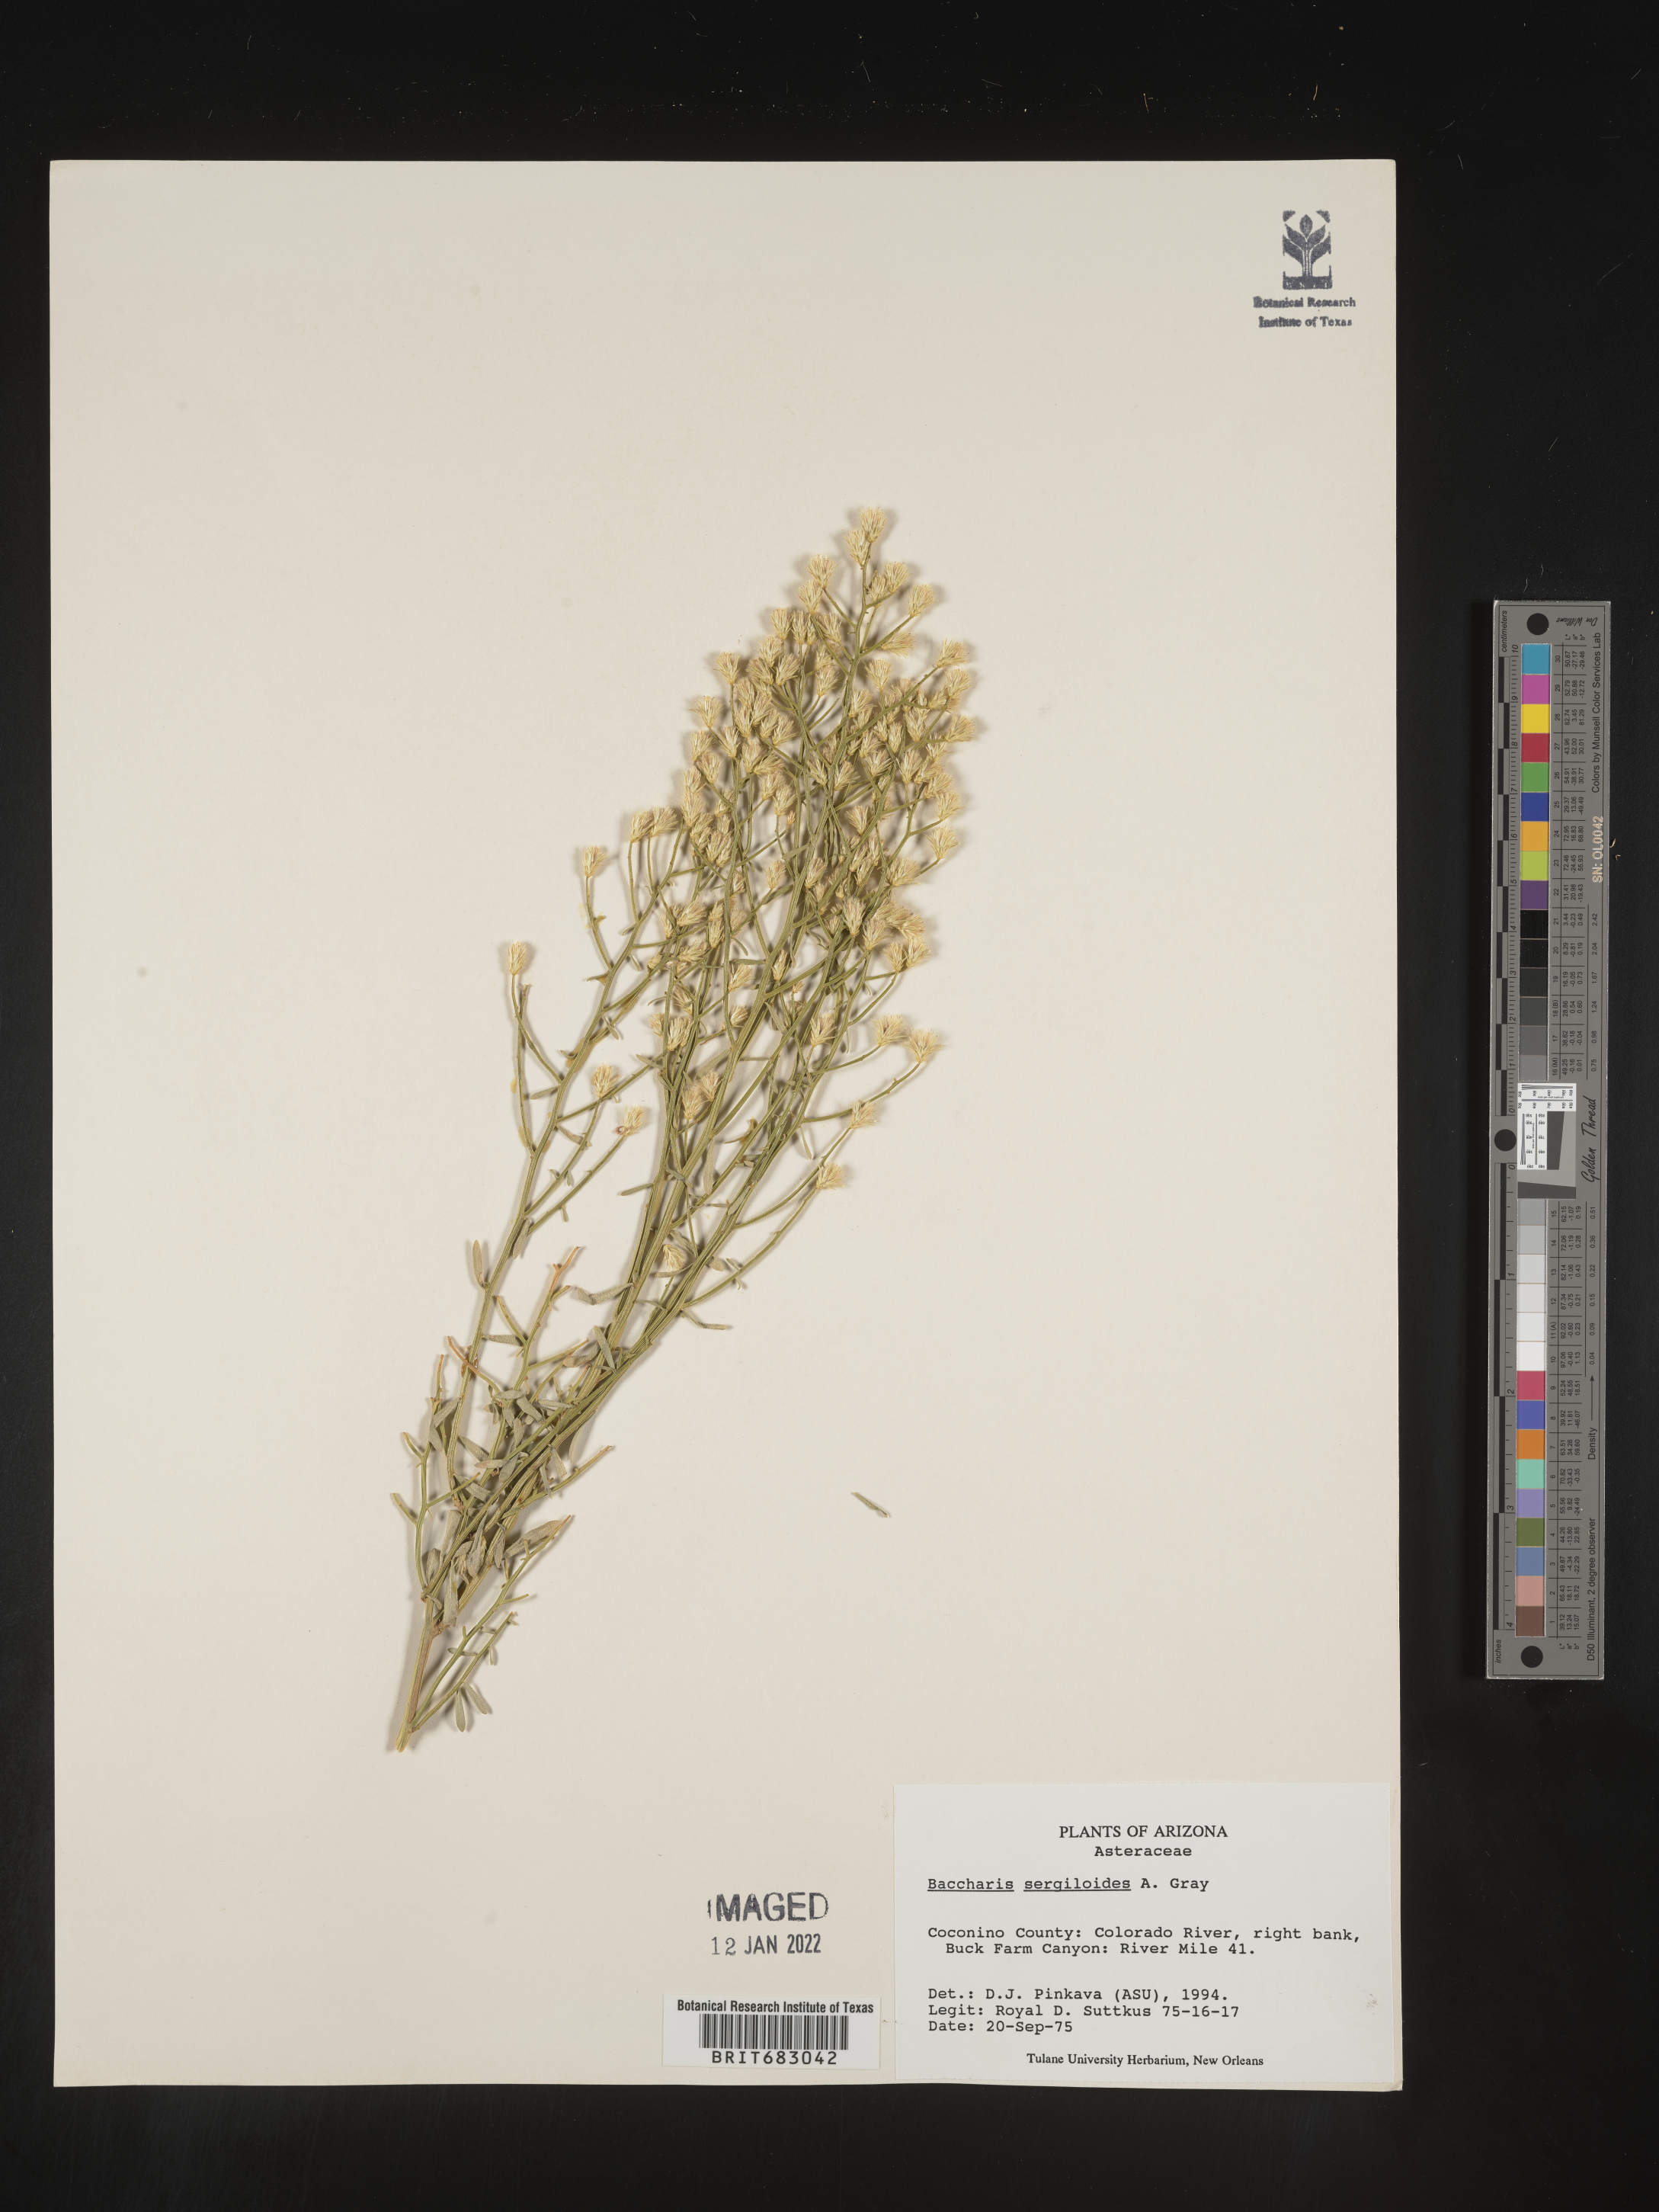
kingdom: Plantae
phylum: Tracheophyta
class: Magnoliopsida
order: Asterales
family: Asteraceae
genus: Baccharis
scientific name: Baccharis sergiloides
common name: Desert baccharis
